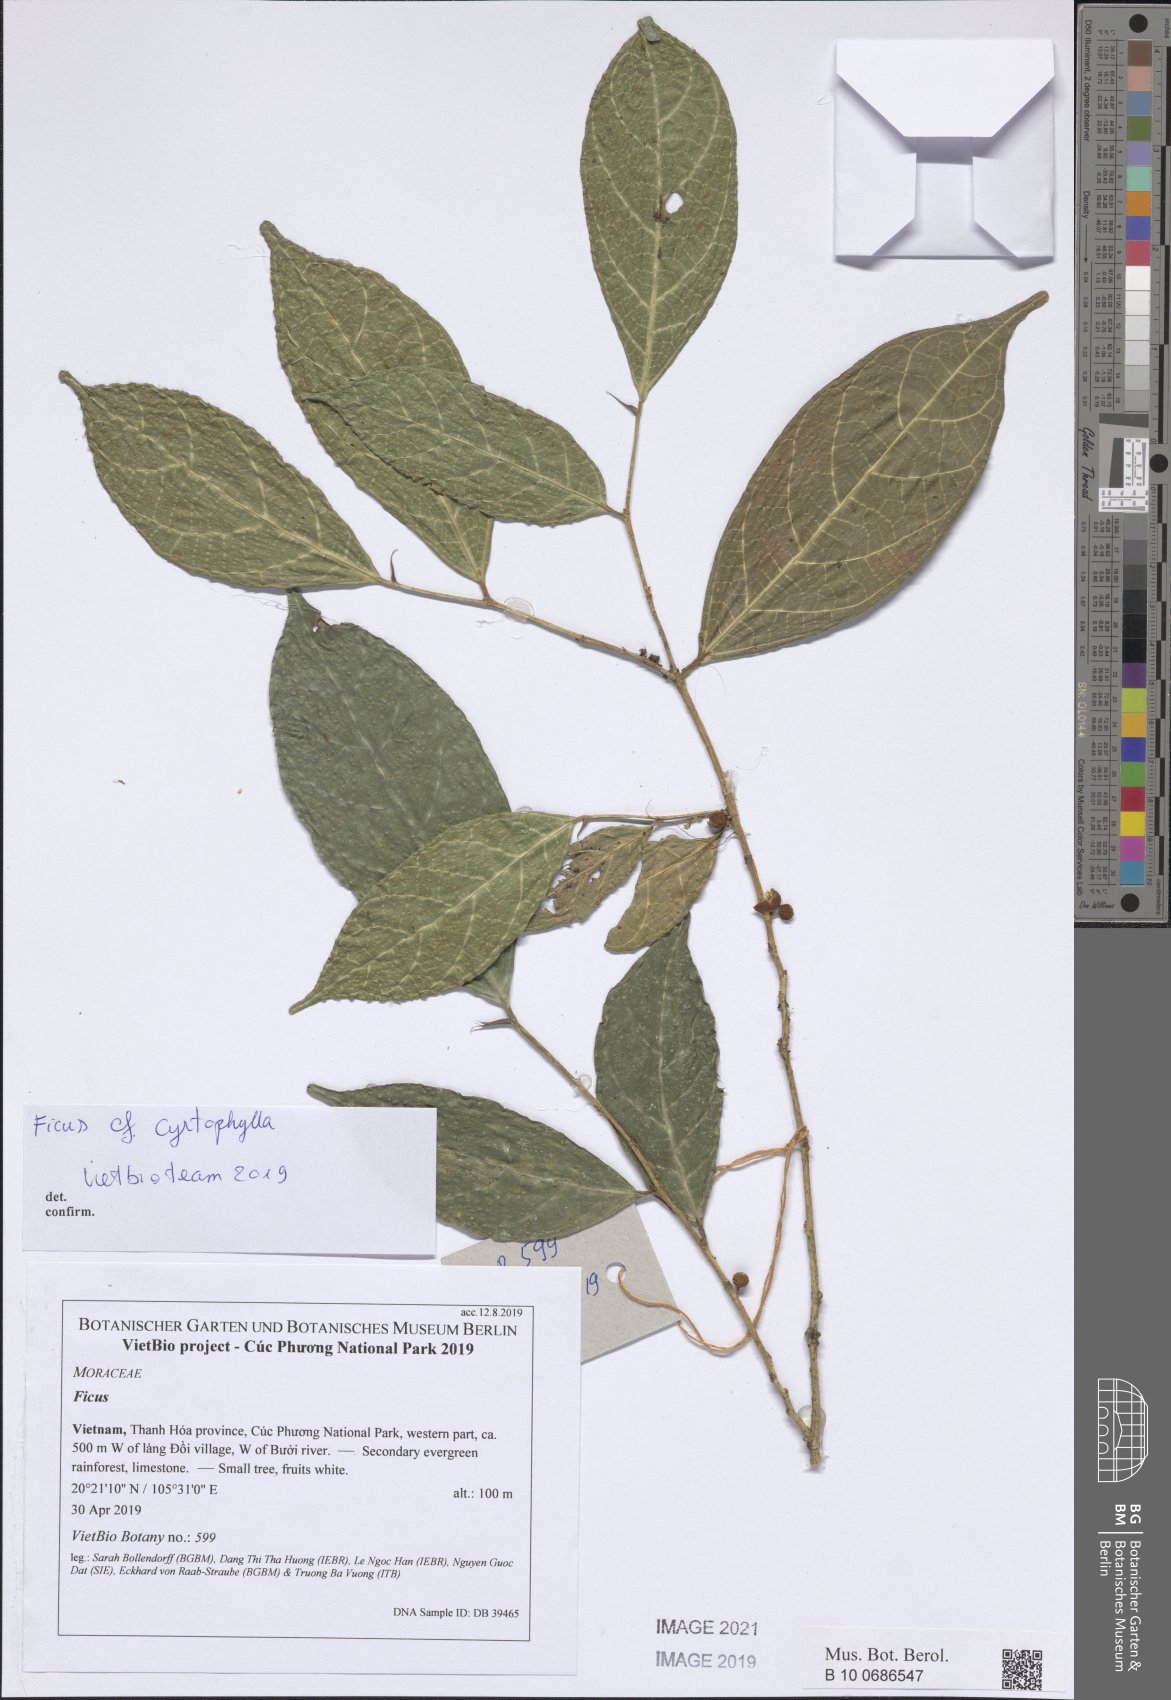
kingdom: Plantae
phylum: Tracheophyta
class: Liliopsida
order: Poales
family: Poaceae
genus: Brachypodium
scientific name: Brachypodium sylvaticum
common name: False-brome
